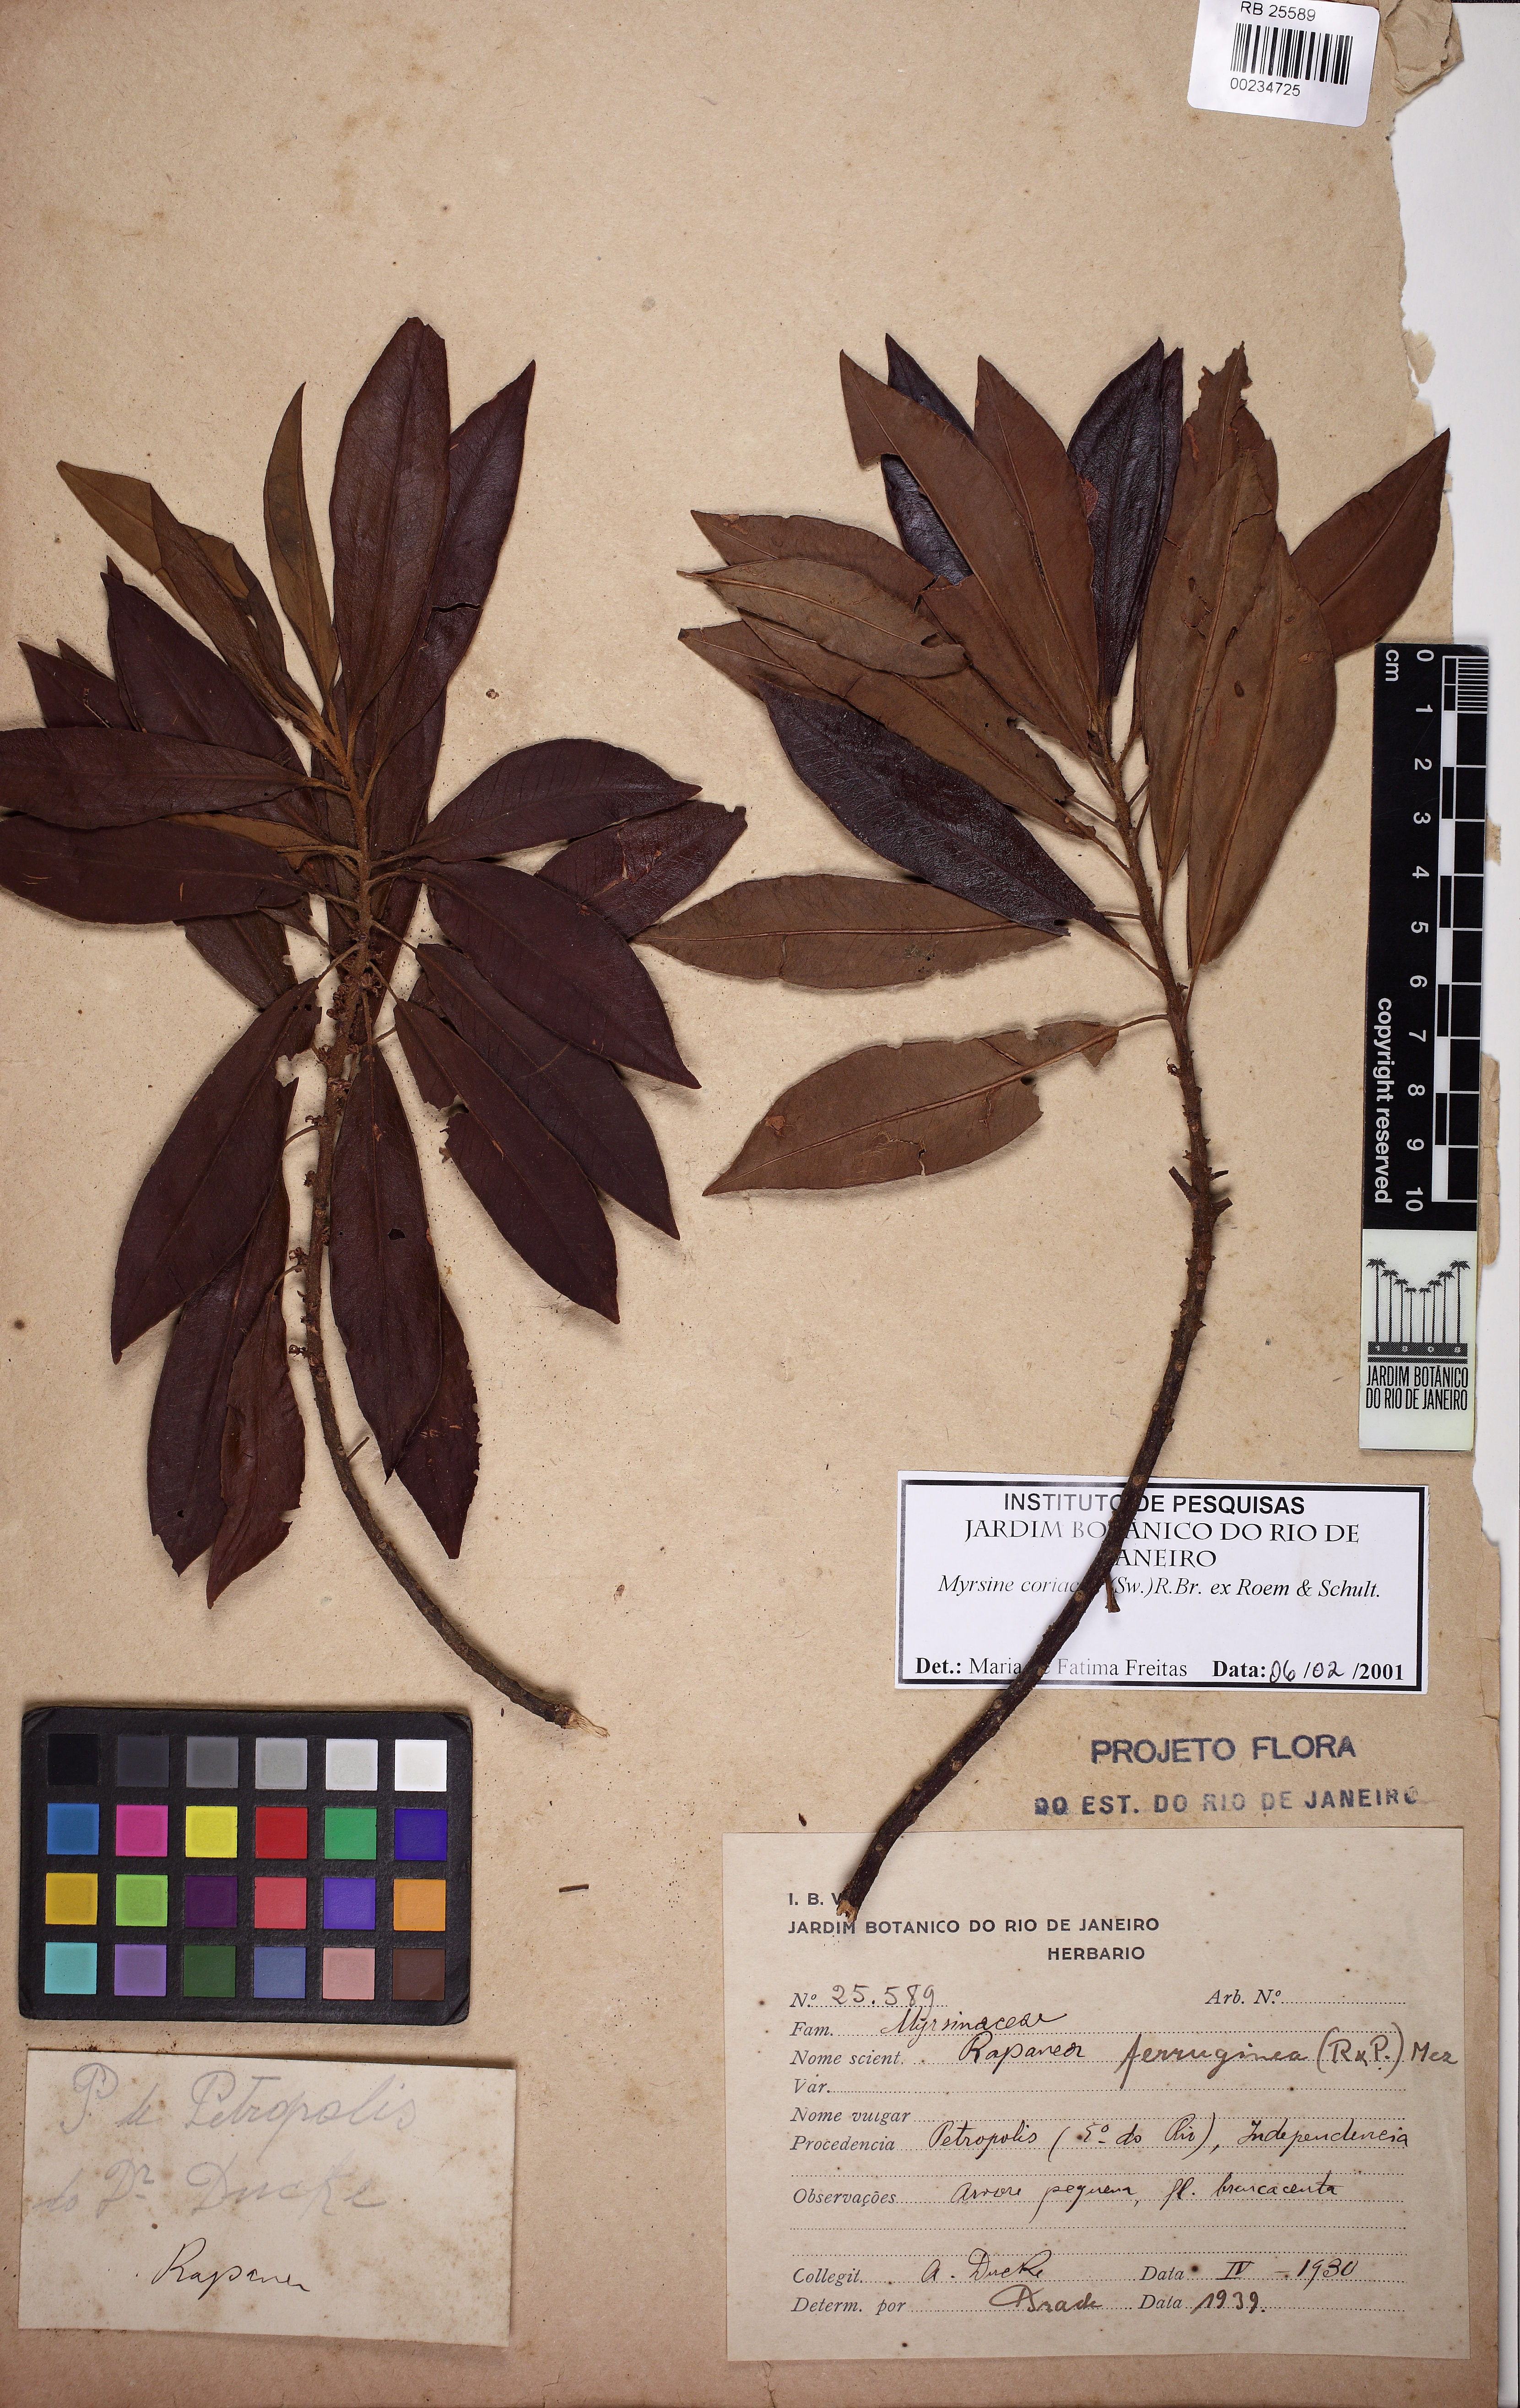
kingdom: Plantae
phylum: Tracheophyta
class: Magnoliopsida
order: Ericales
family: Primulaceae
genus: Myrsine
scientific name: Myrsine coriacea
